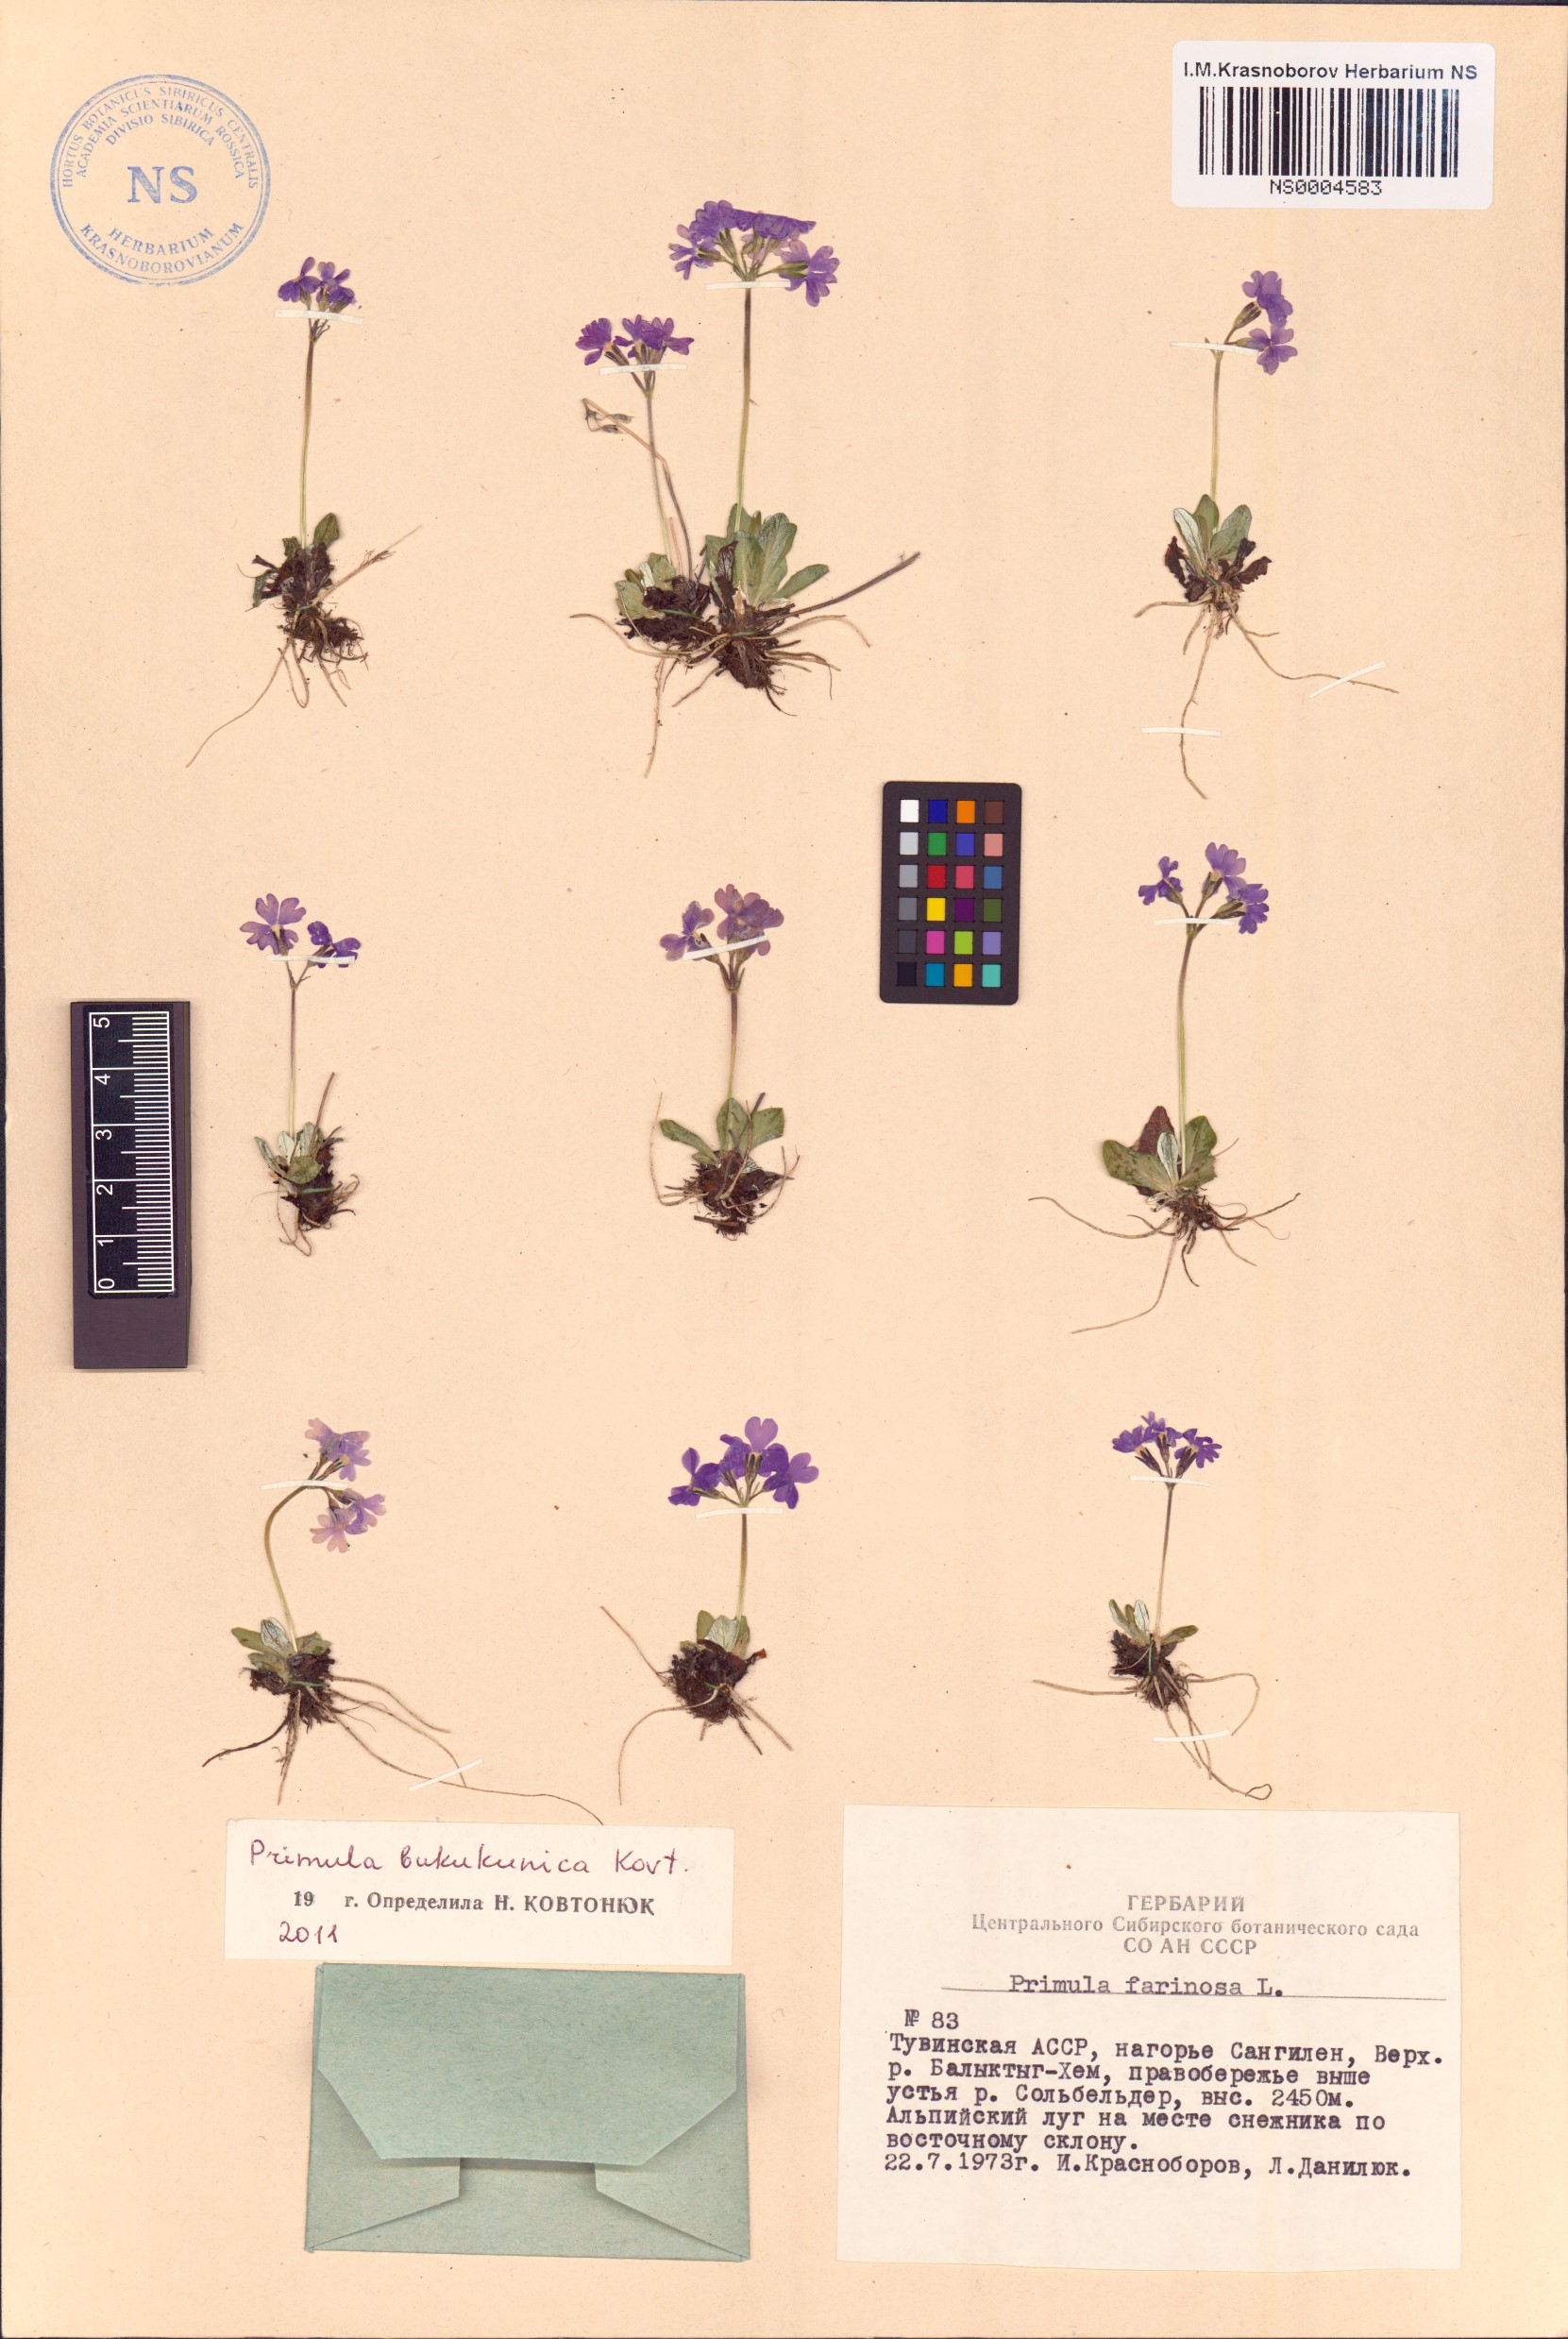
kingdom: Plantae
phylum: Tracheophyta
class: Magnoliopsida
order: Ericales
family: Primulaceae
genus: Primula
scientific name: Primula bukukunica
